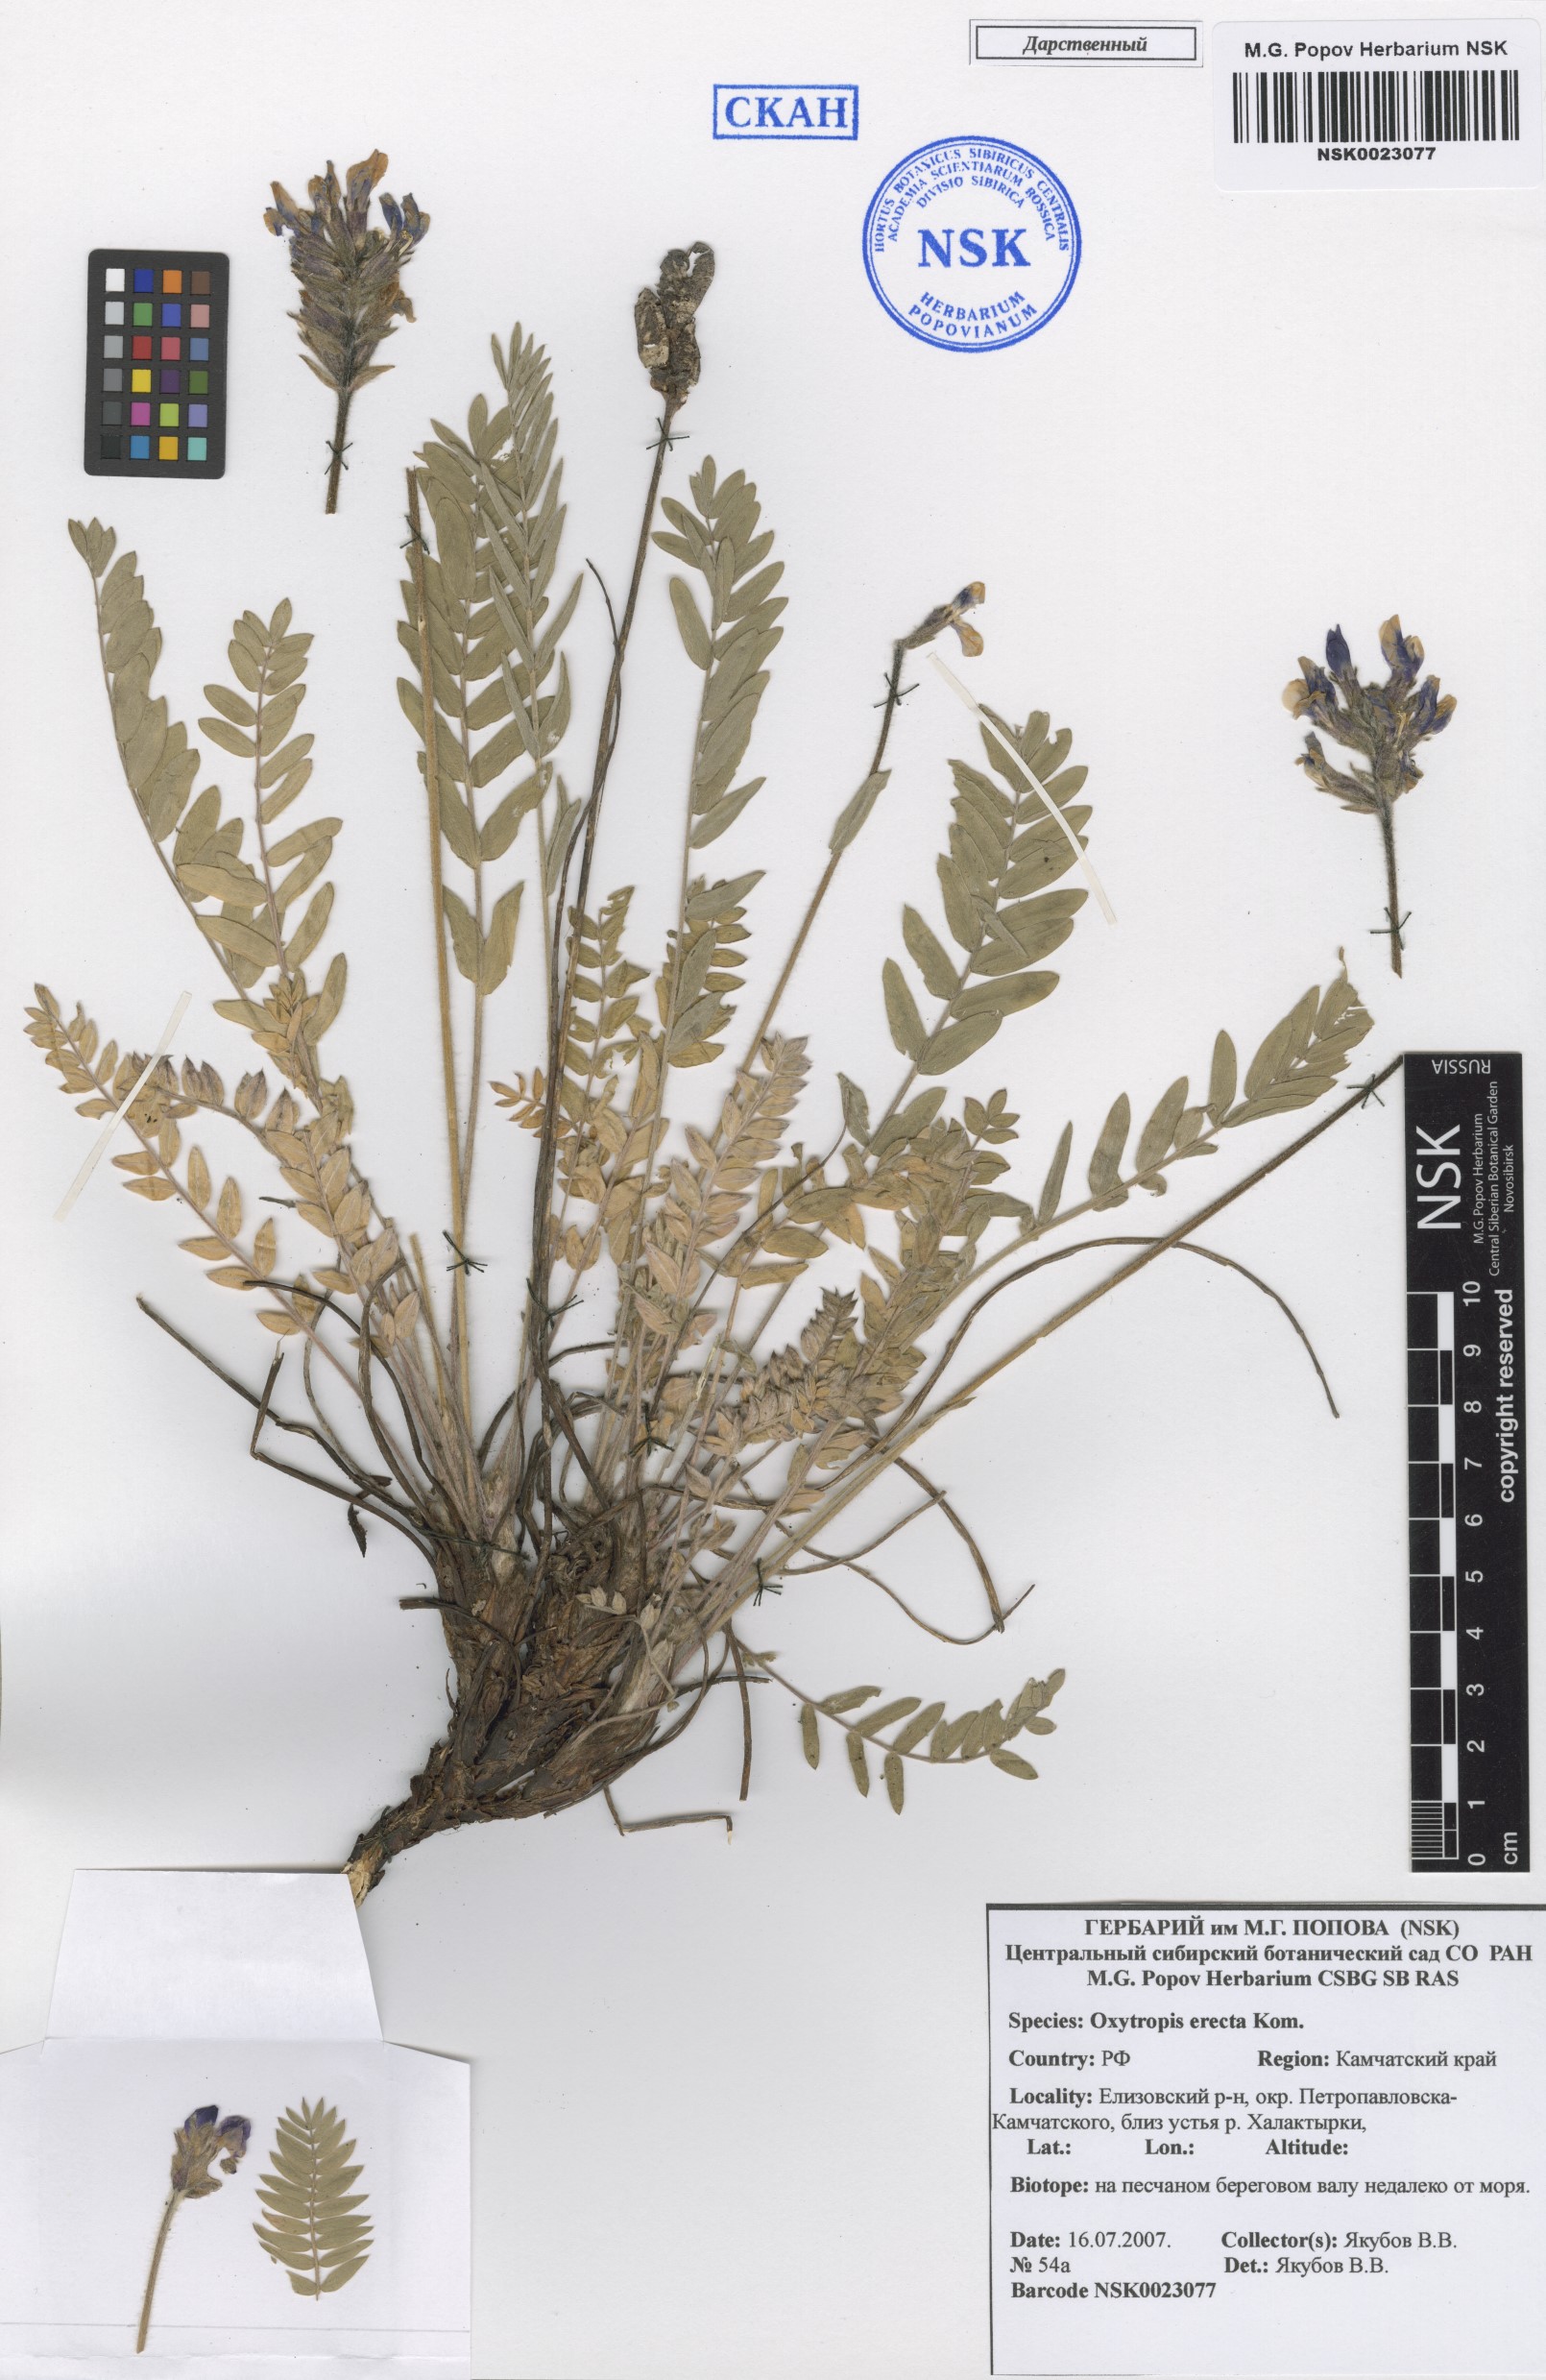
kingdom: Plantae
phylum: Tracheophyta
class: Magnoliopsida
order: Fabales
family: Fabaceae
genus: Oxytropis
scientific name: Oxytropis adamsiana
